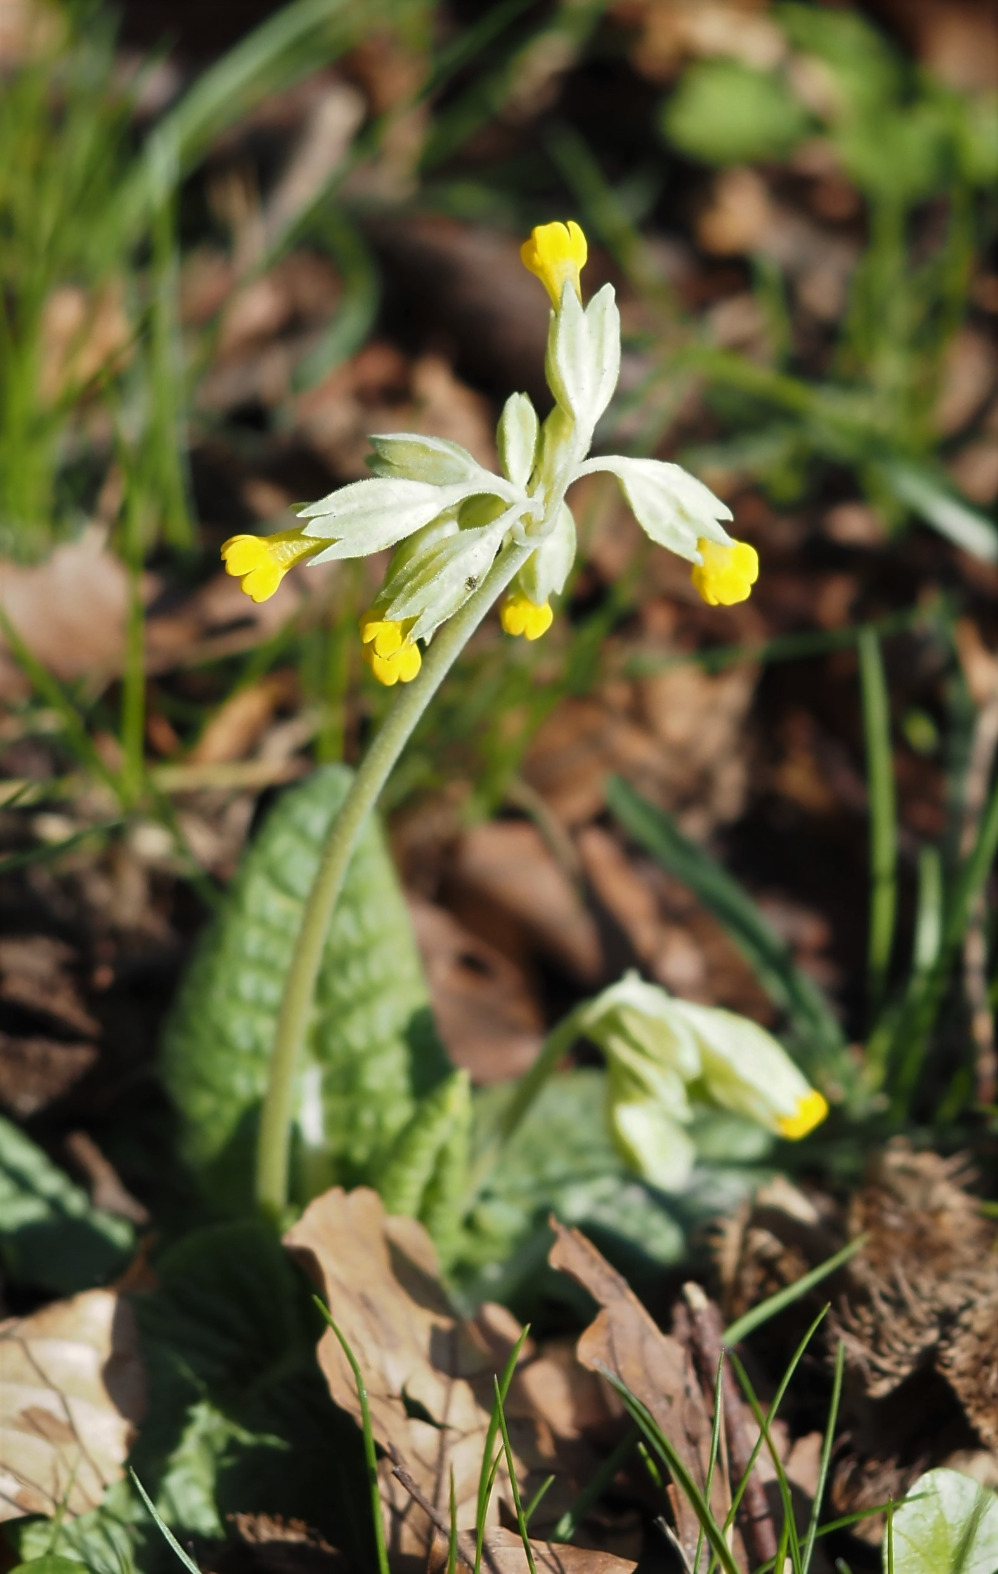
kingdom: Plantae
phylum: Tracheophyta
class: Magnoliopsida
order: Ericales
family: Primulaceae
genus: Primula
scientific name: Primula veris
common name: Hulkravet kodriver
